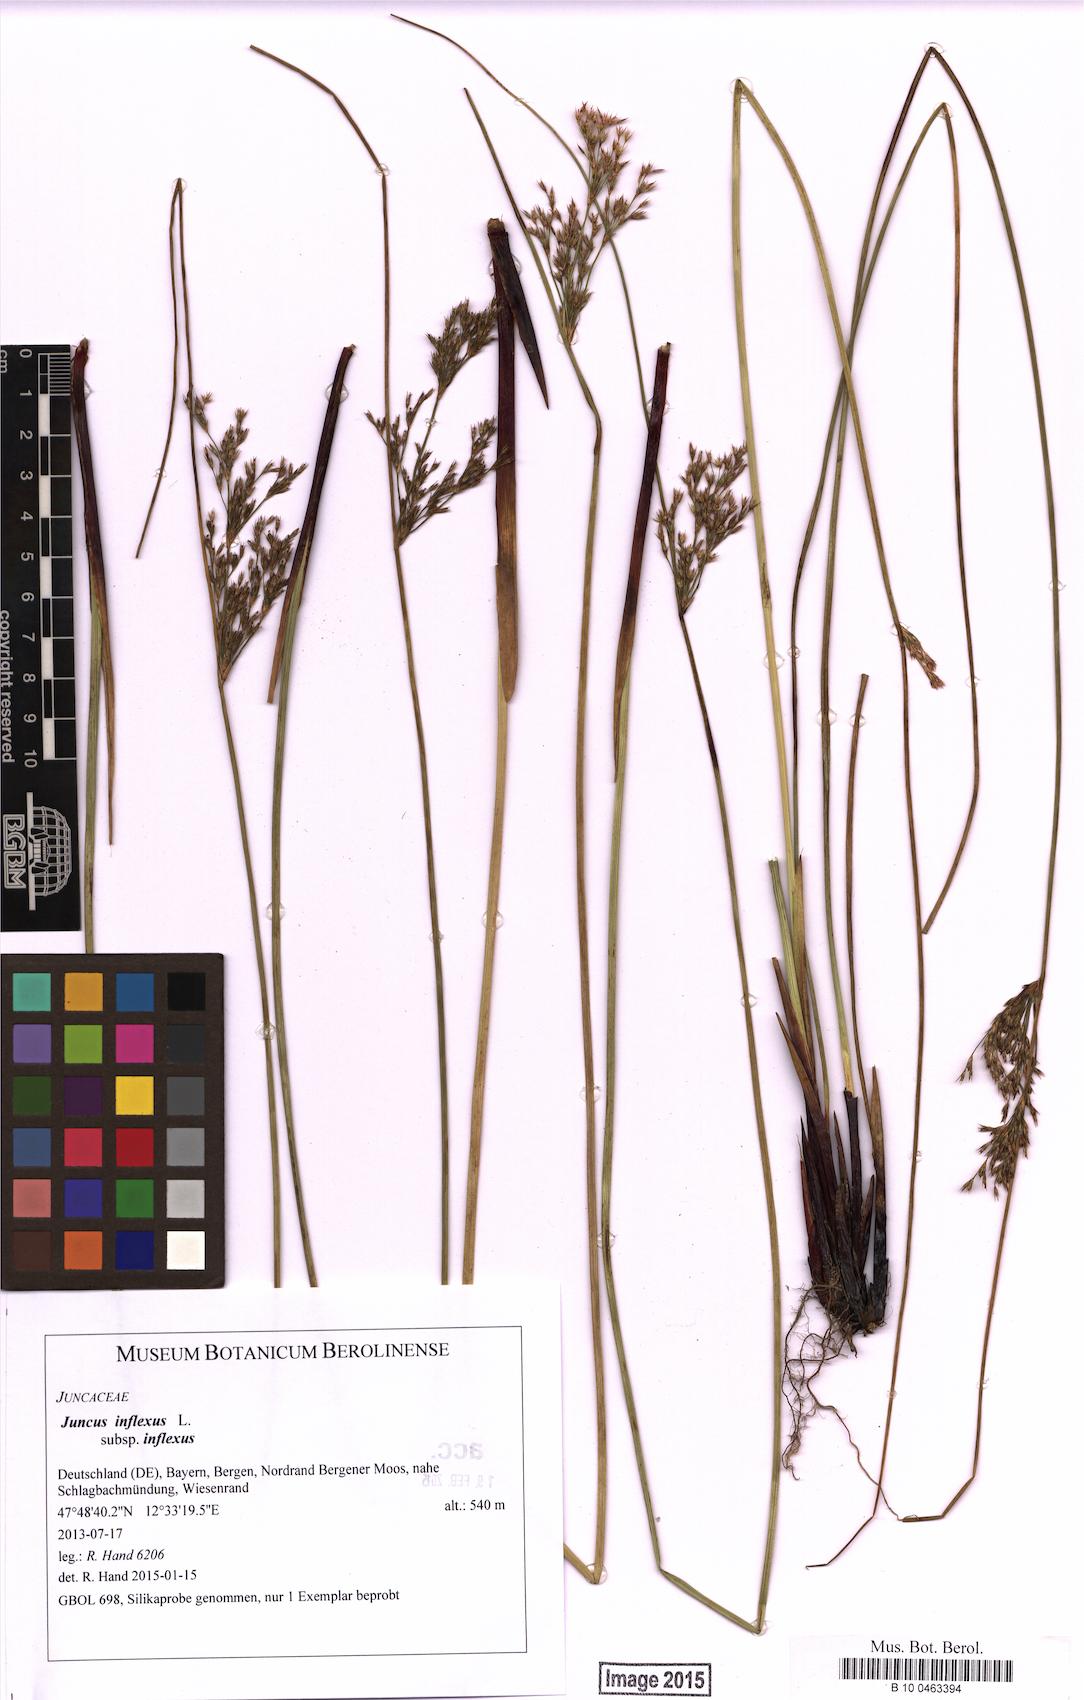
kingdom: Plantae
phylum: Tracheophyta
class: Liliopsida
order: Poales
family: Juncaceae
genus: Juncus
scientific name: Juncus inflexus
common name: Hard rush
